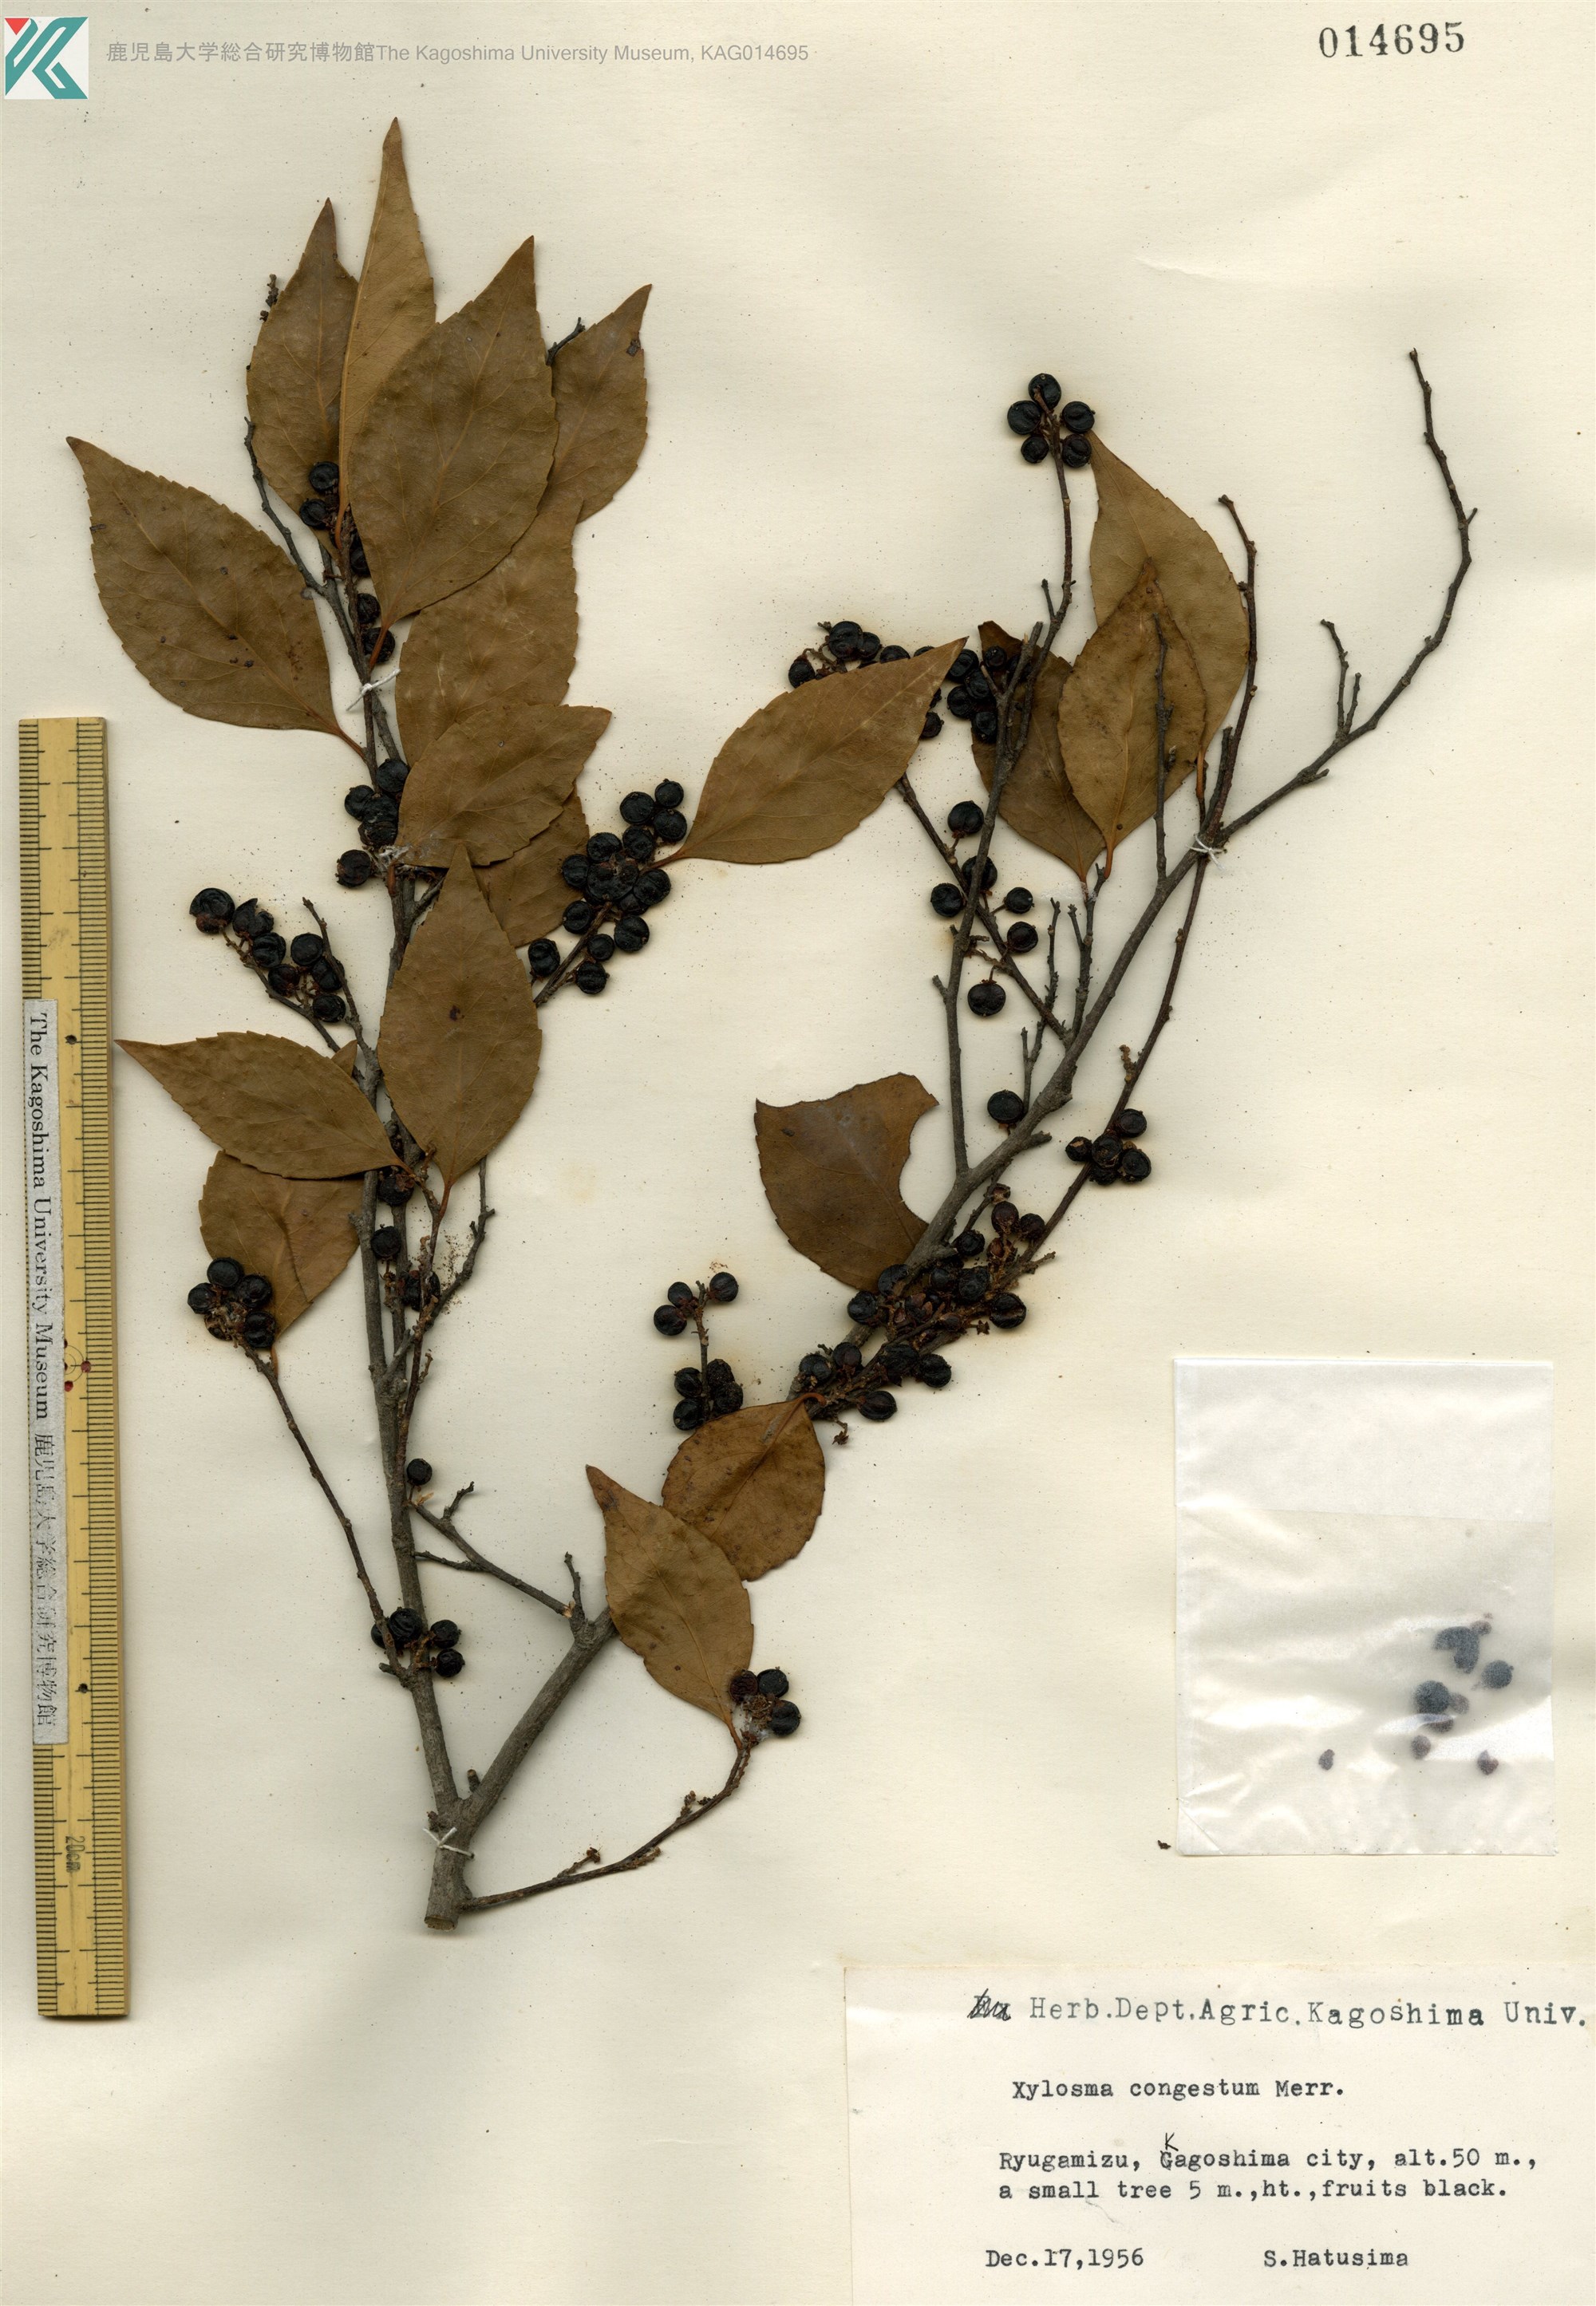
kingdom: Plantae
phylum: Tracheophyta
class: Magnoliopsida
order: Malpighiales
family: Salicaceae
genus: Xylosma
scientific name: Xylosma racemosum
